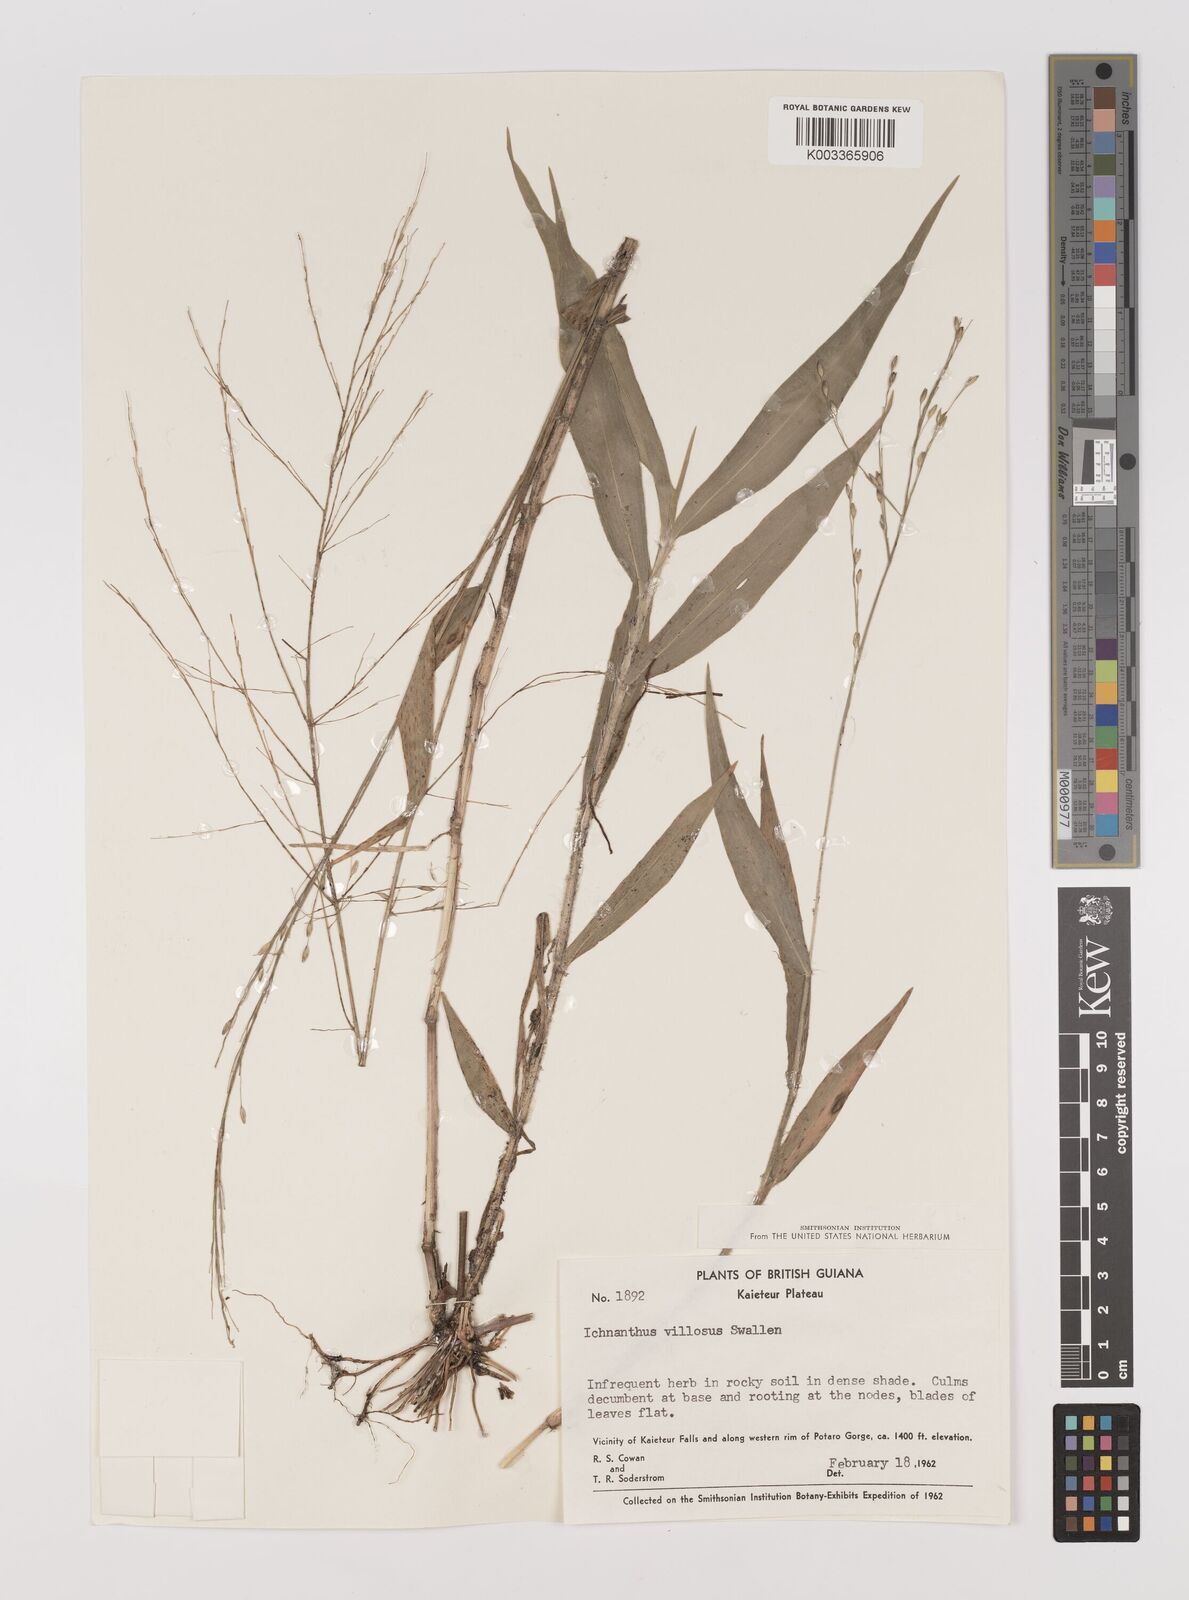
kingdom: Plantae
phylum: Tracheophyta
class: Liliopsida
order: Poales
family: Poaceae
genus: Ichnanthus
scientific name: Ichnanthus dasycoleus
